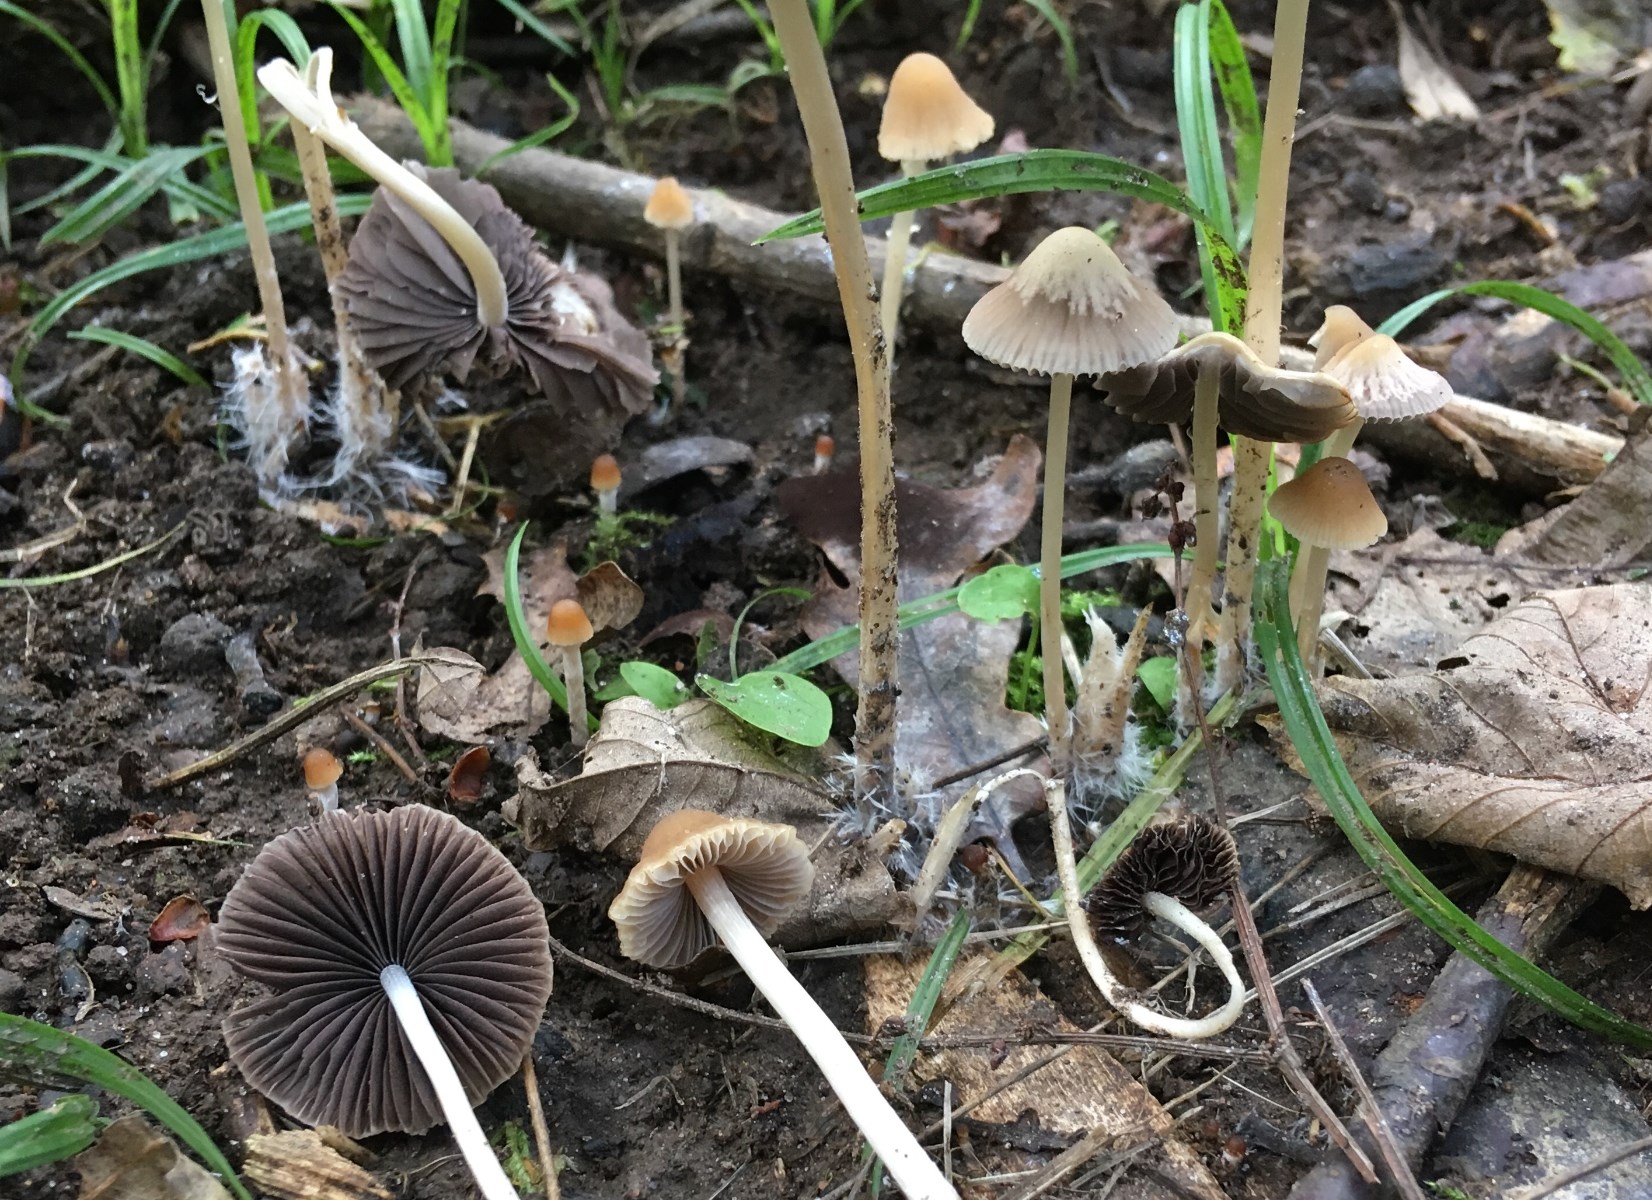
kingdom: Fungi
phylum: Basidiomycota
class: Agaricomycetes
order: Agaricales
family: Psathyrellaceae
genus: Psathyrella
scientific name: Psathyrella
